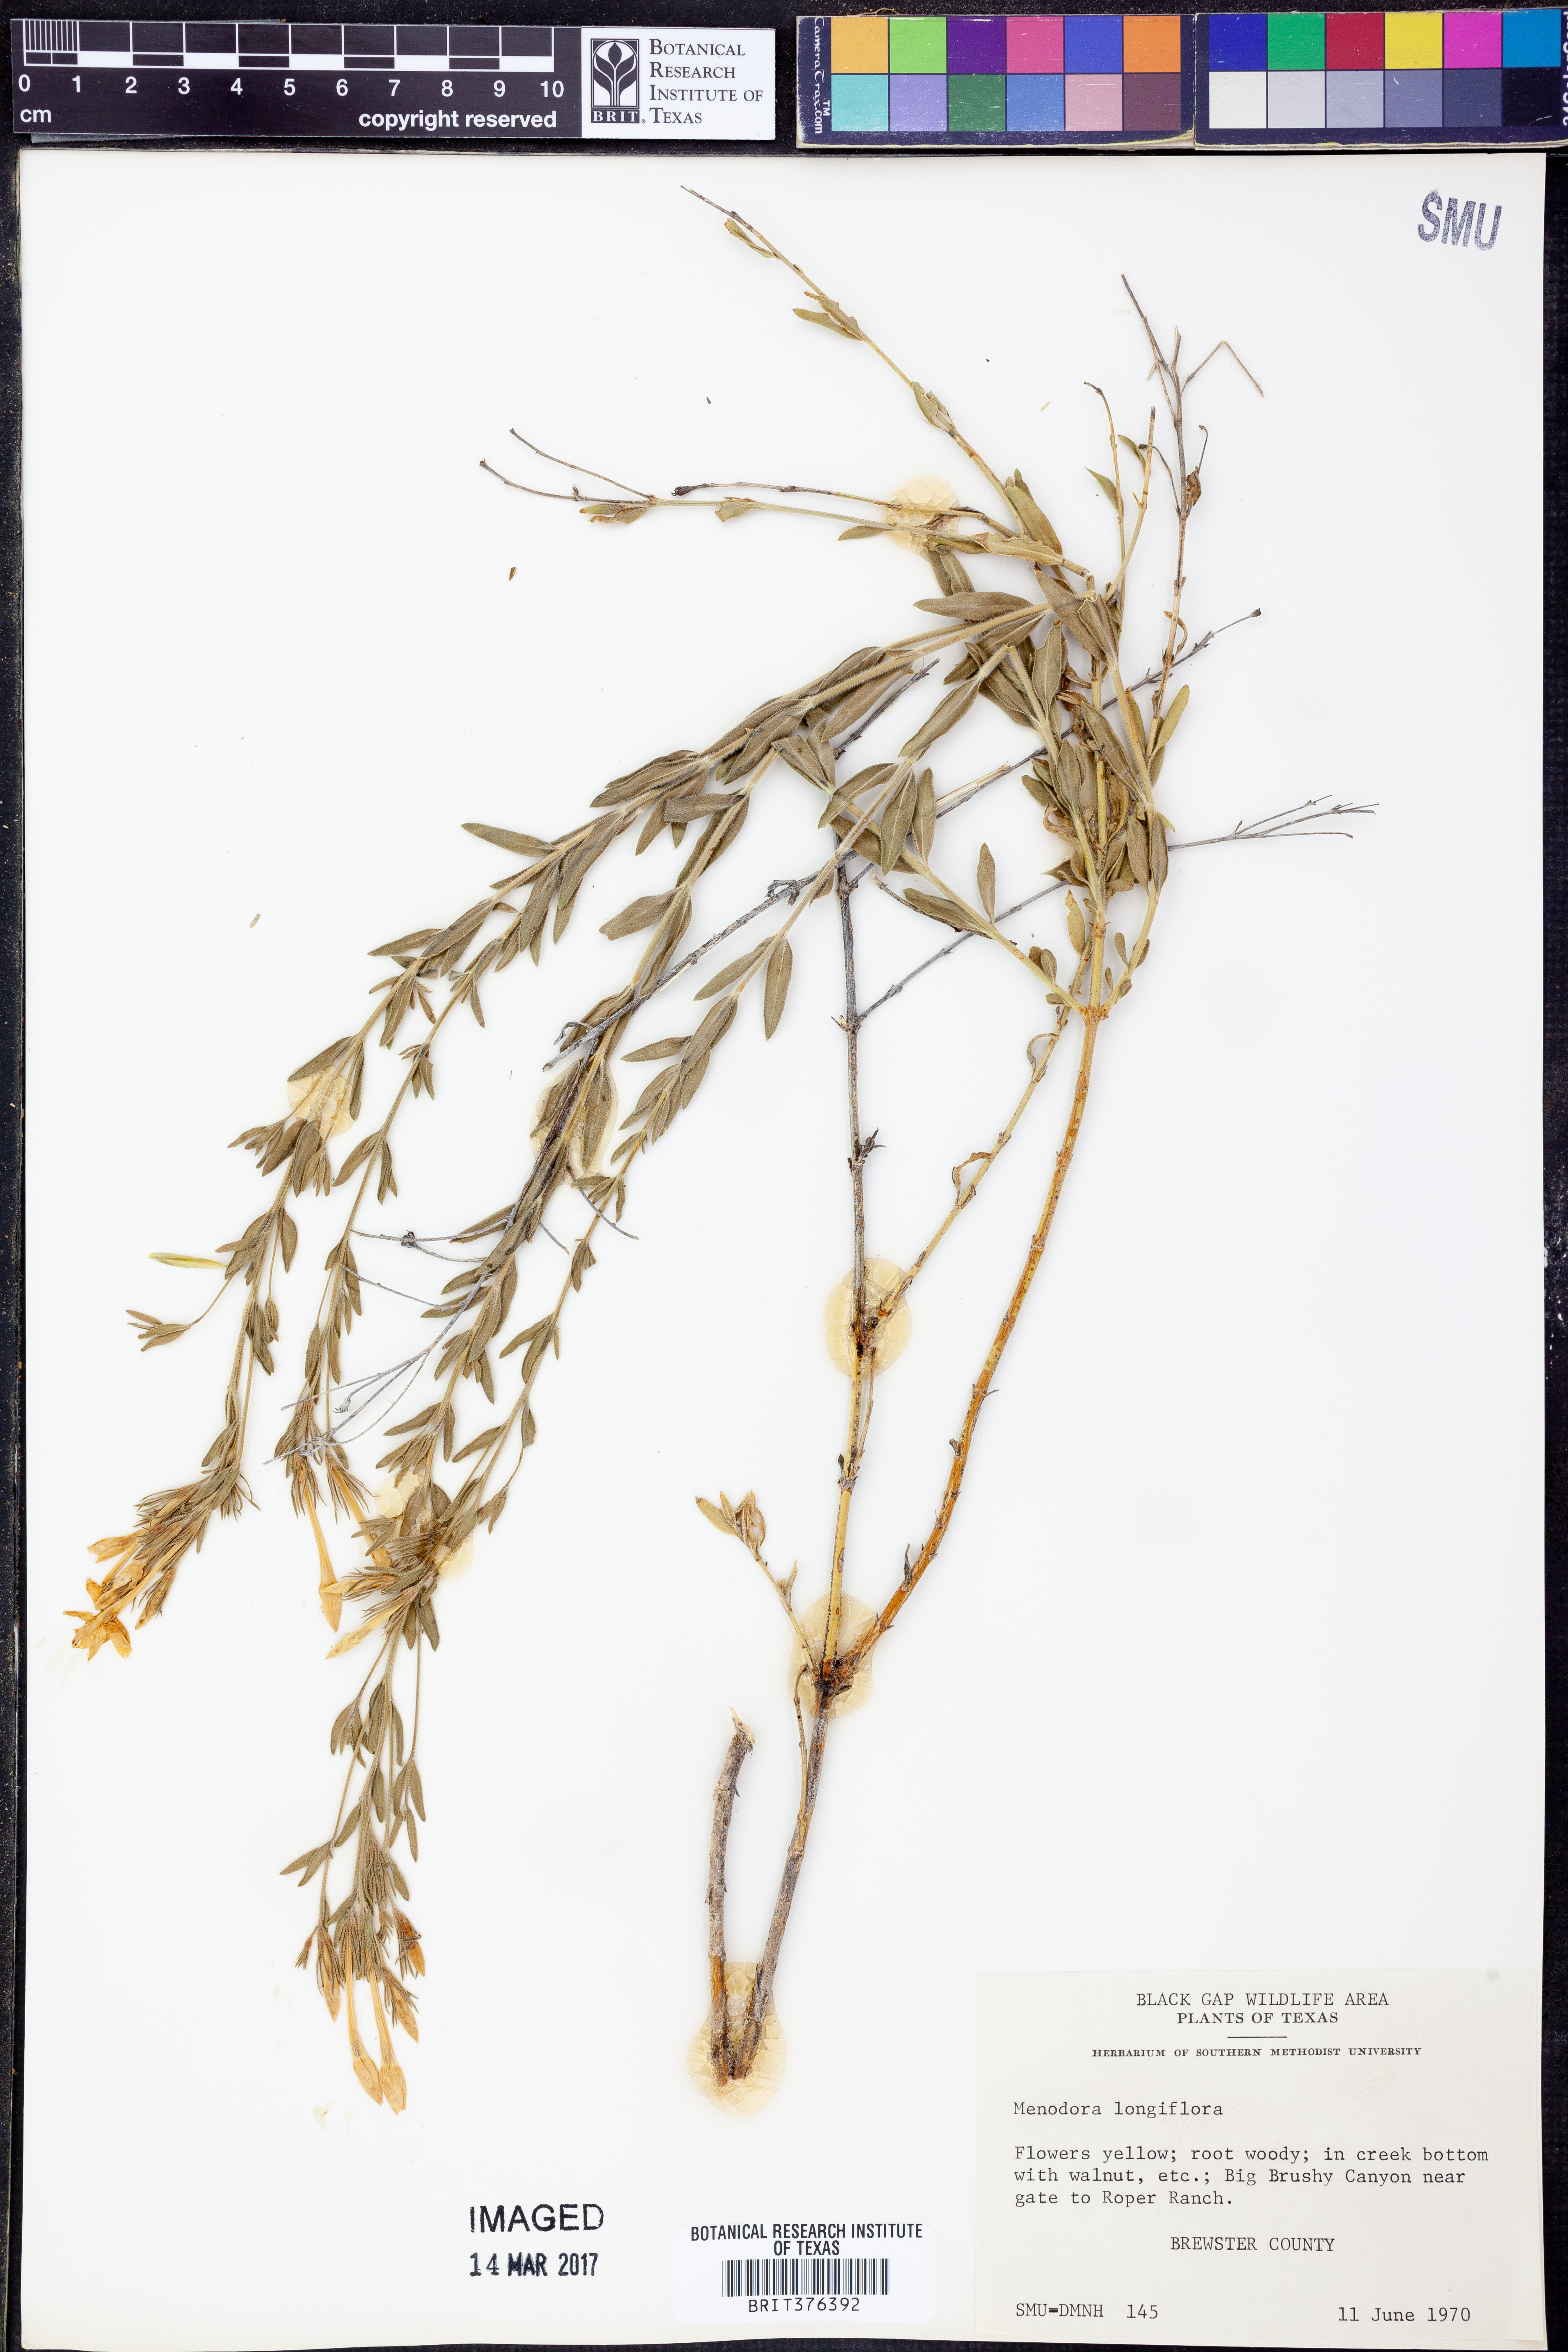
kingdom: Plantae
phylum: Tracheophyta
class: Magnoliopsida
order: Lamiales
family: Oleaceae
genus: Menodora
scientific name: Menodora longiflora
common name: Showy menodora
